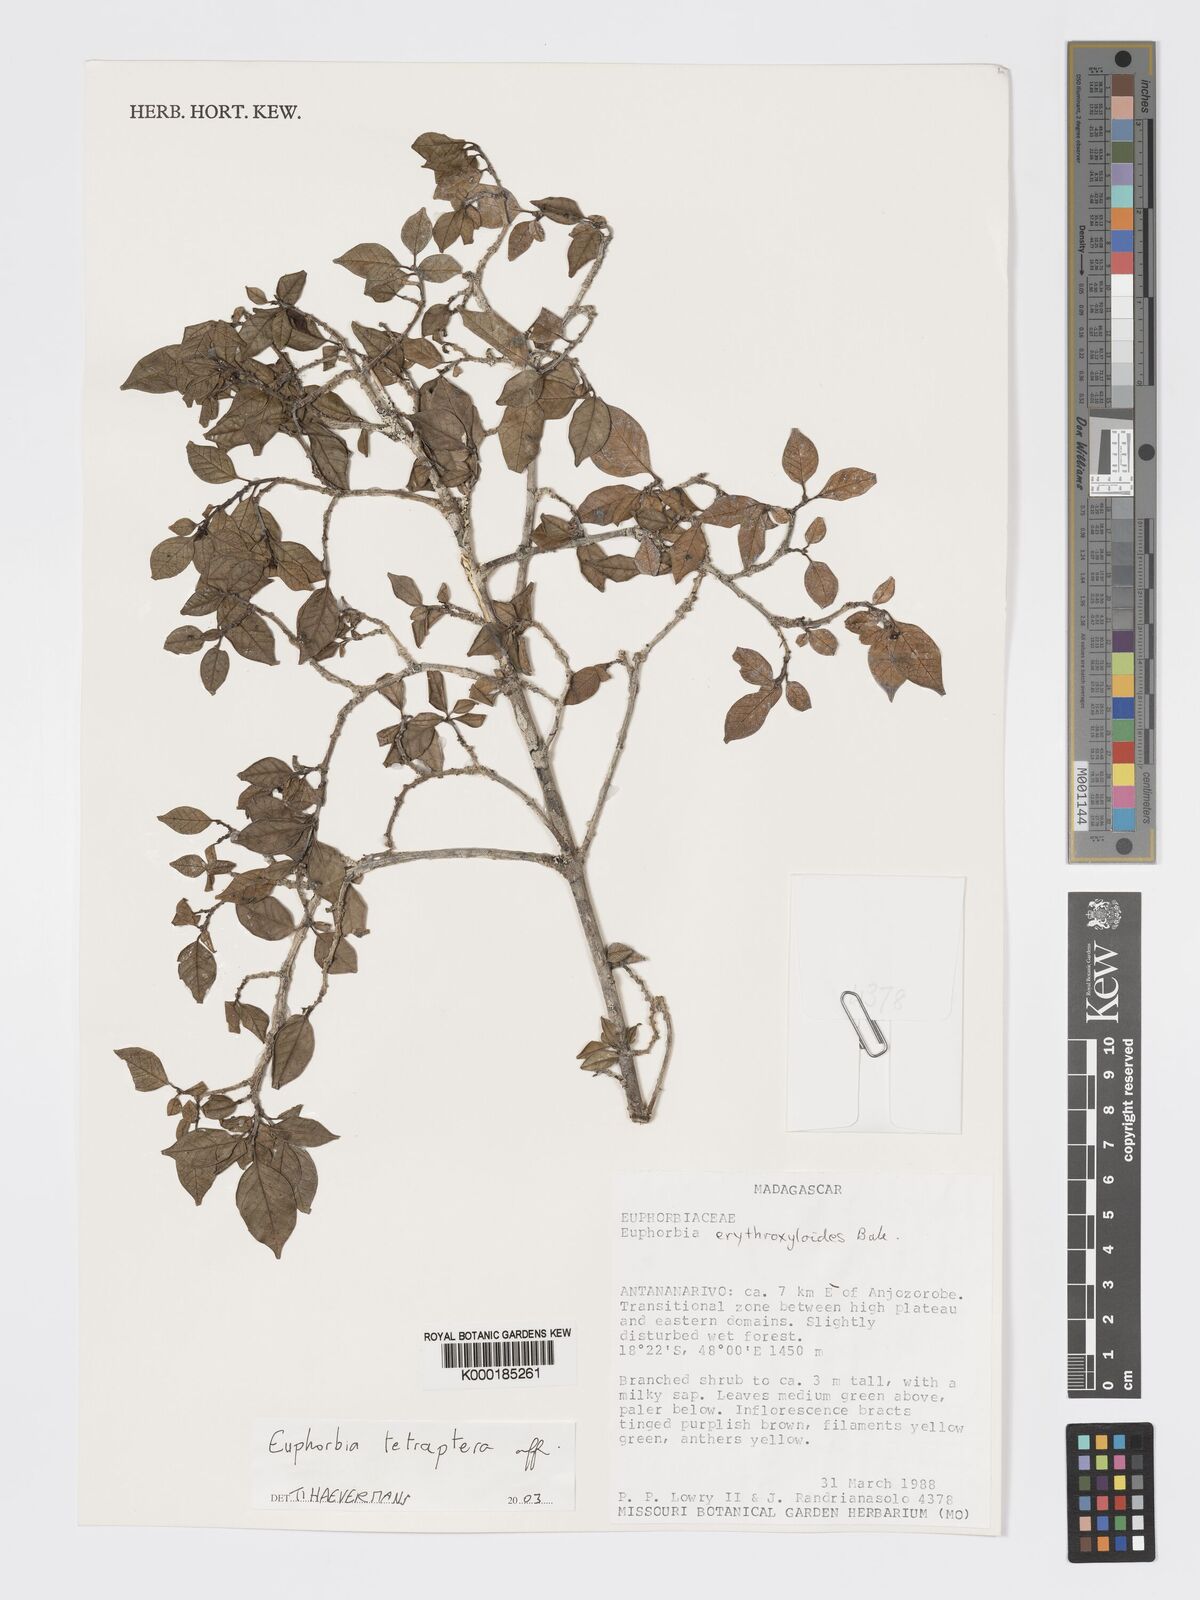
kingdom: Plantae
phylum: Tracheophyta
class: Magnoliopsida
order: Malpighiales
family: Euphorbiaceae
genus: Euphorbia
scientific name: Euphorbia tetraptera
